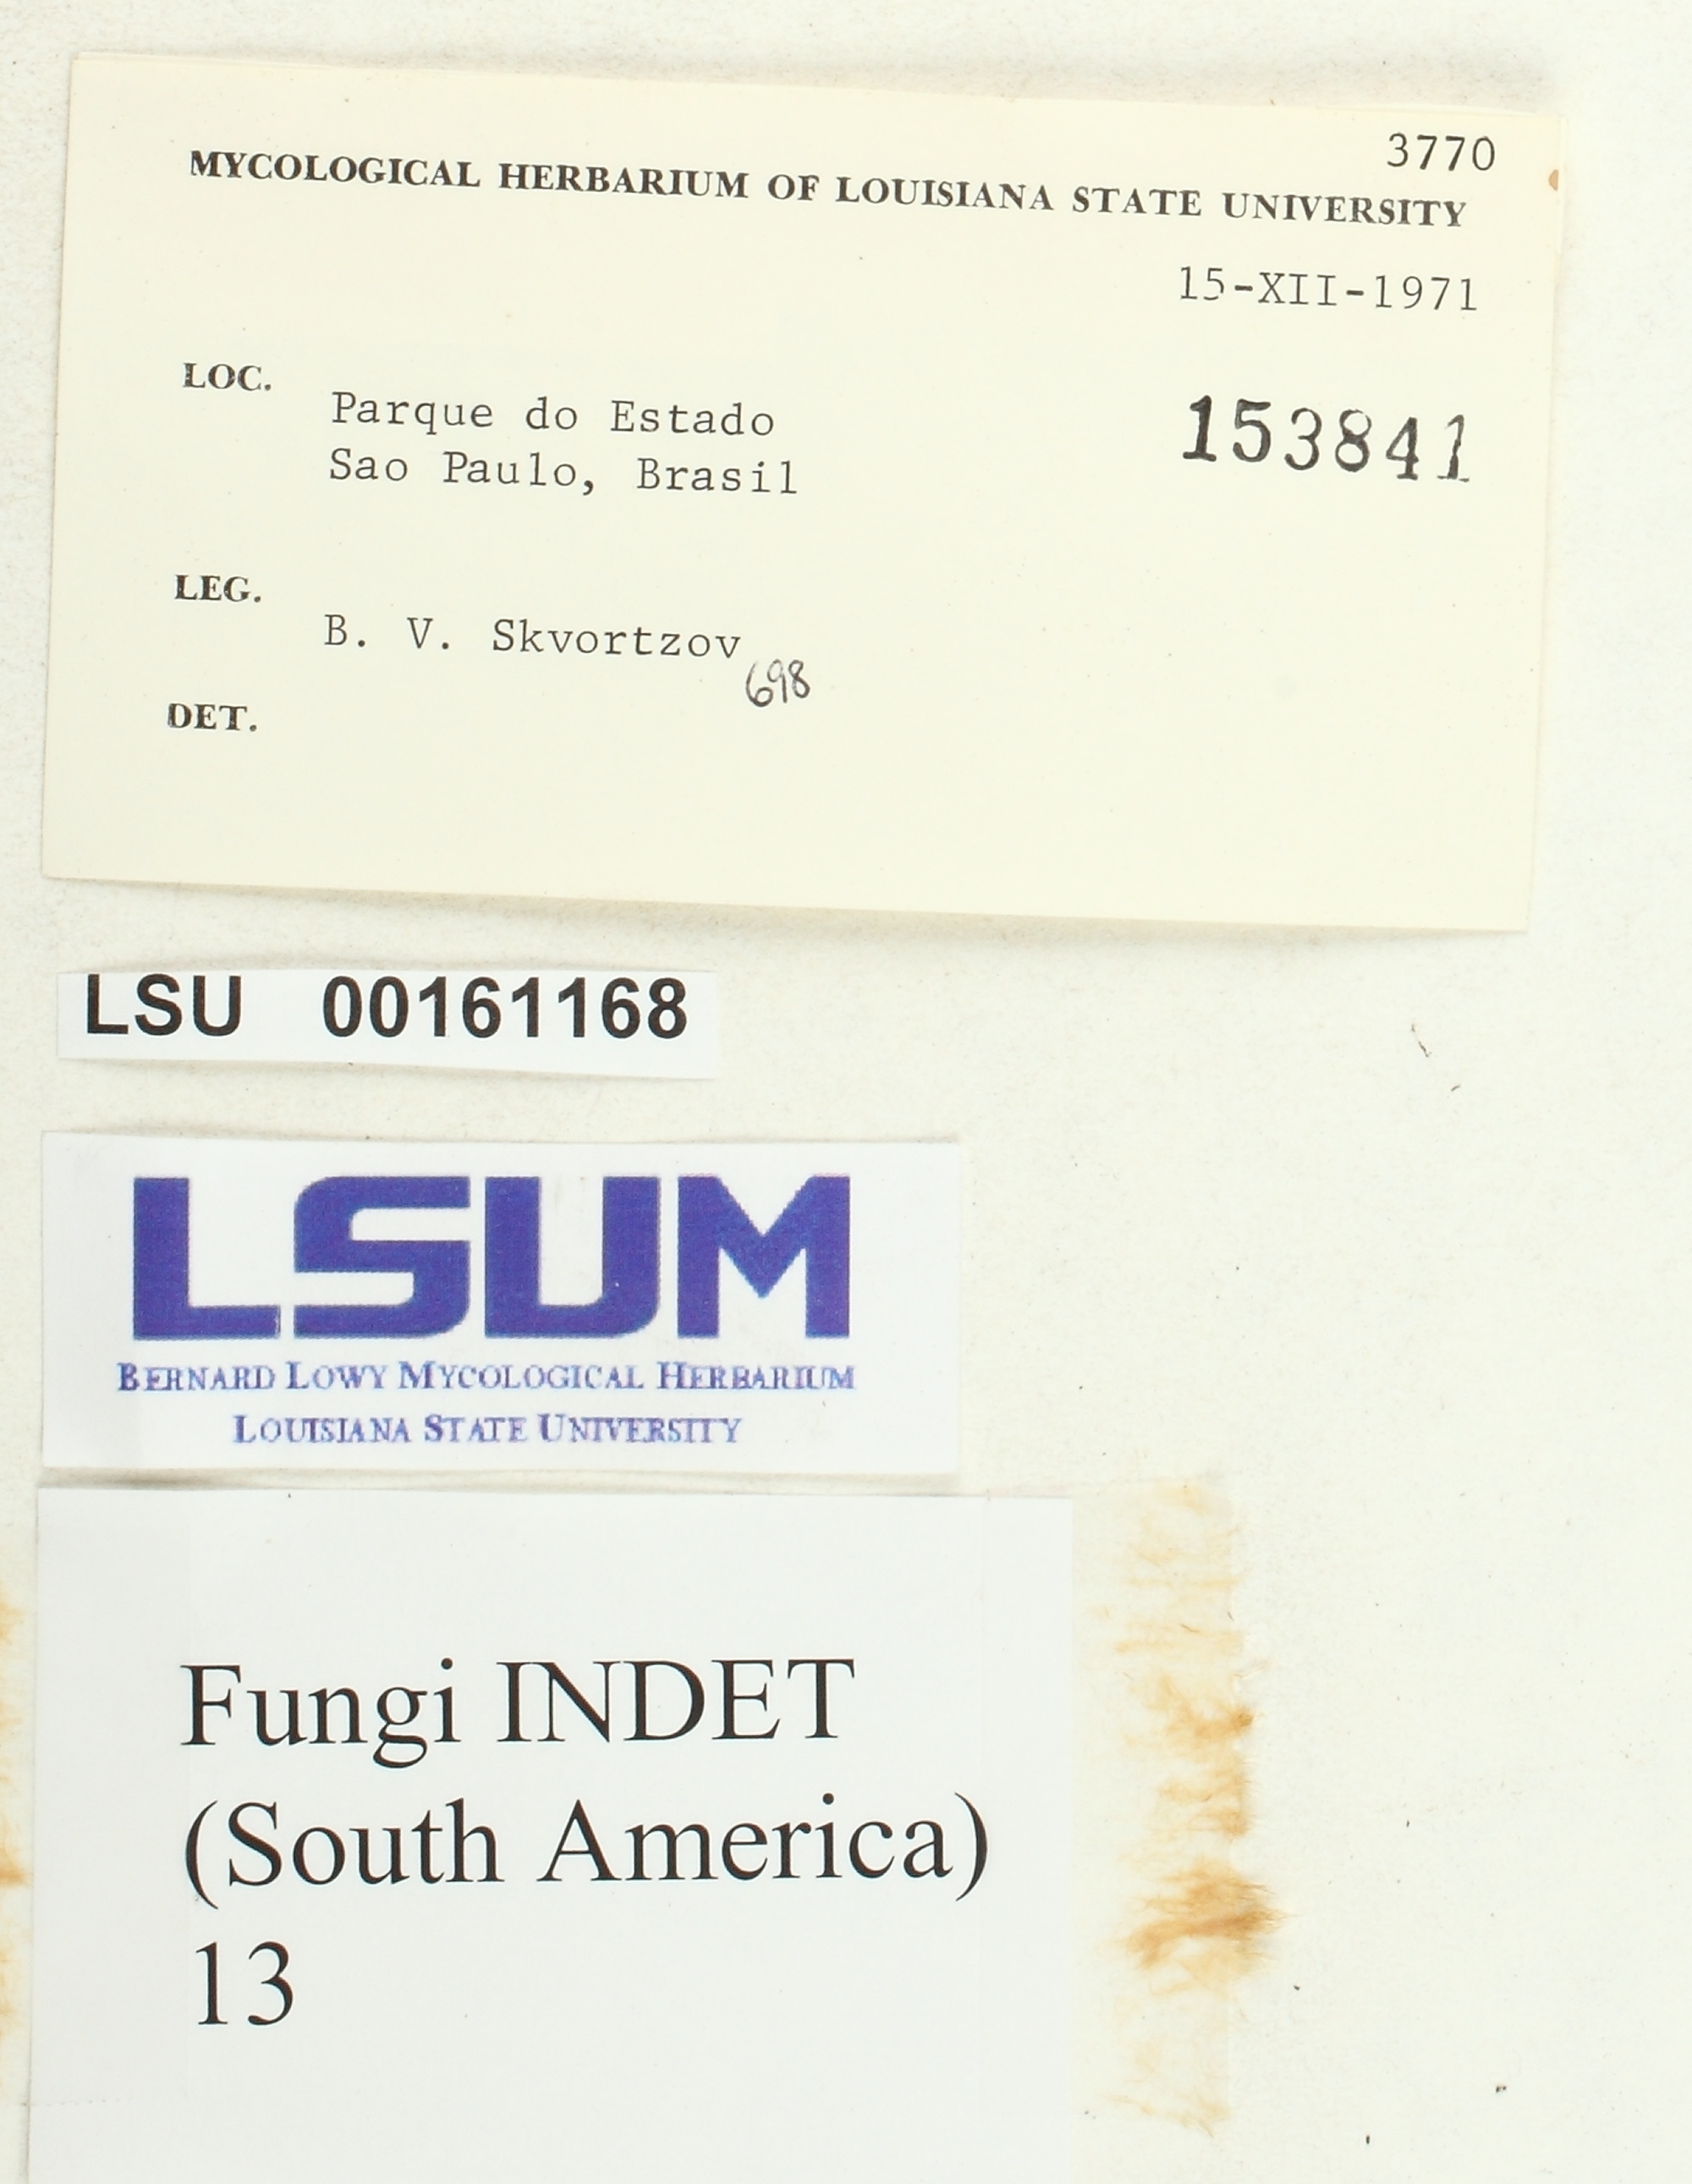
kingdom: Fungi
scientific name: Fungi
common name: Fungi
